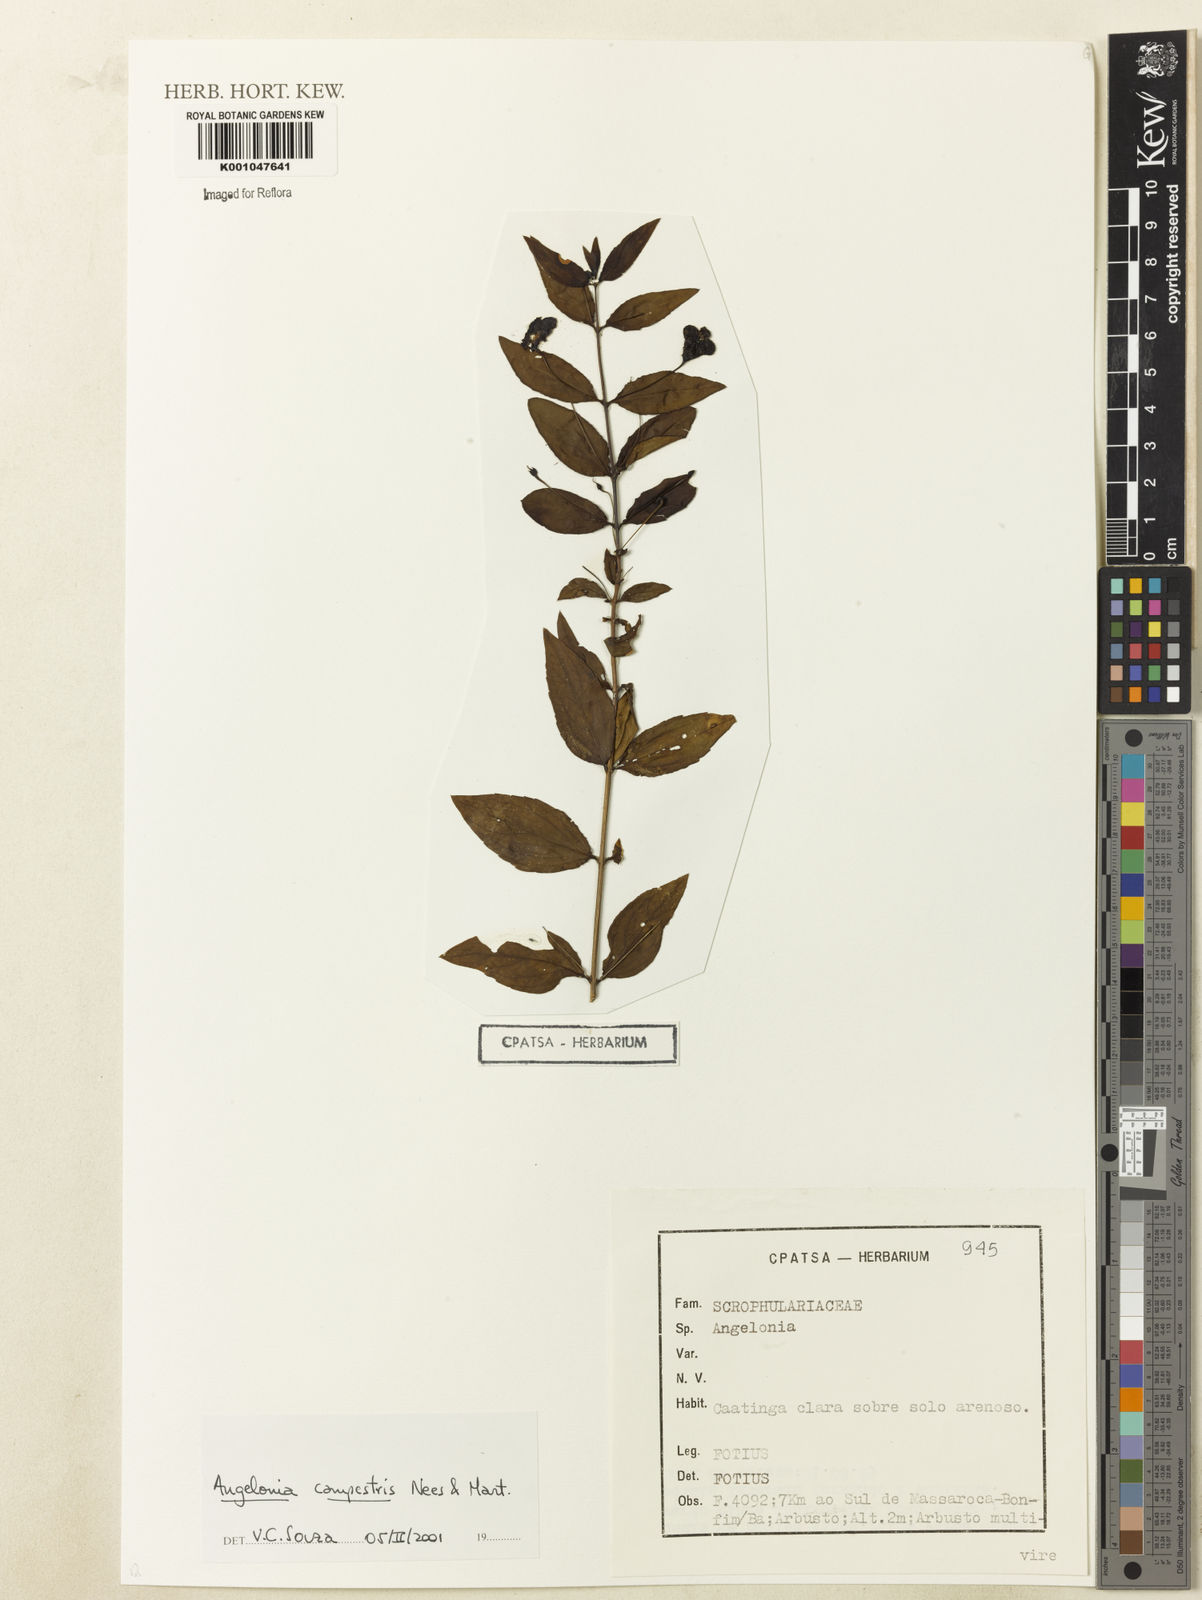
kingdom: Plantae
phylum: Tracheophyta
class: Magnoliopsida
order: Lamiales
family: Plantaginaceae
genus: Angelonia
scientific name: Angelonia campestris
